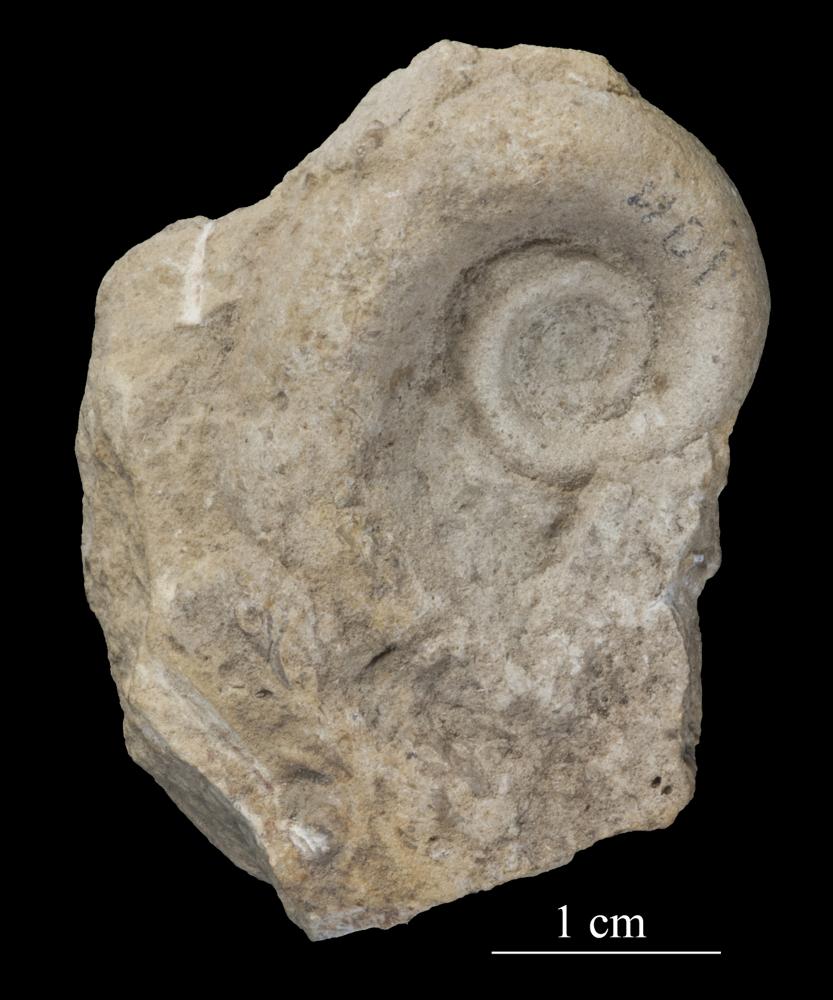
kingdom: Animalia
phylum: Mollusca
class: Gastropoda
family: Lesueurillidae
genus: Mestoronema
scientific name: Mestoronema Euomphalus marginalis
